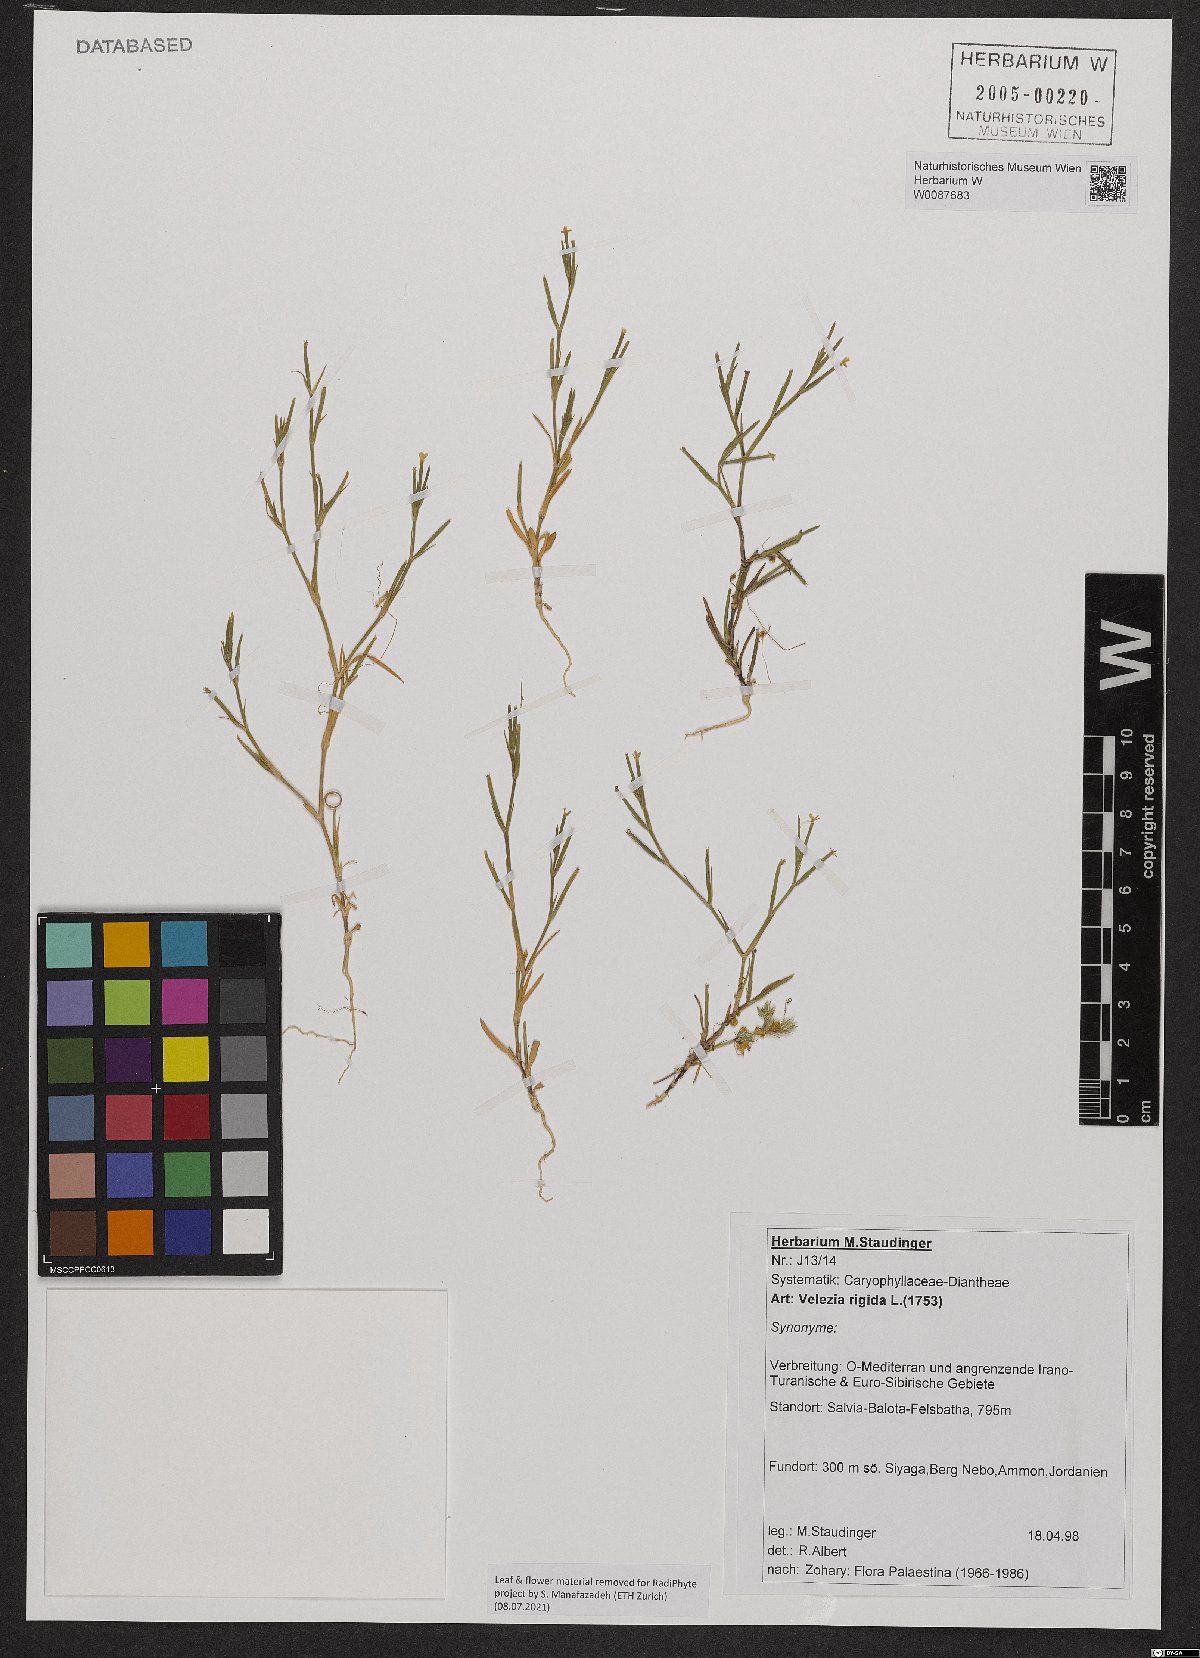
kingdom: Plantae
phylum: Tracheophyta
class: Magnoliopsida
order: Caryophyllales
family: Caryophyllaceae
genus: Dianthus
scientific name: Dianthus nudiflorus
